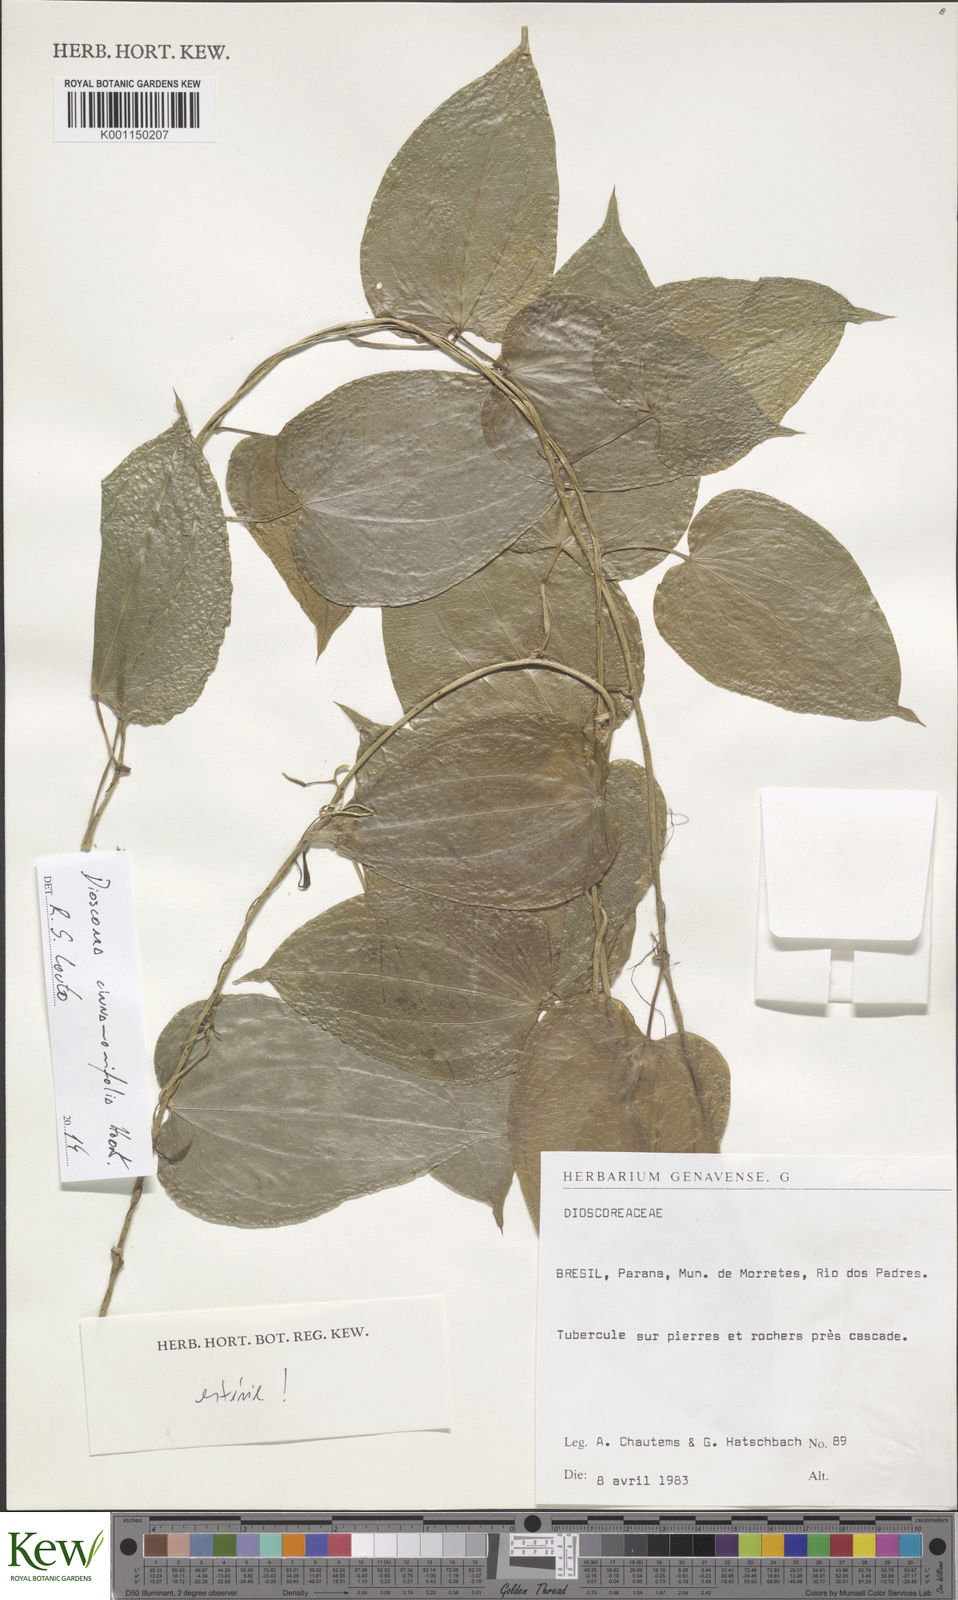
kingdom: Plantae
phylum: Tracheophyta
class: Liliopsida
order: Dioscoreales
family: Dioscoreaceae
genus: Dioscorea
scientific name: Dioscorea cinnamomifolia
